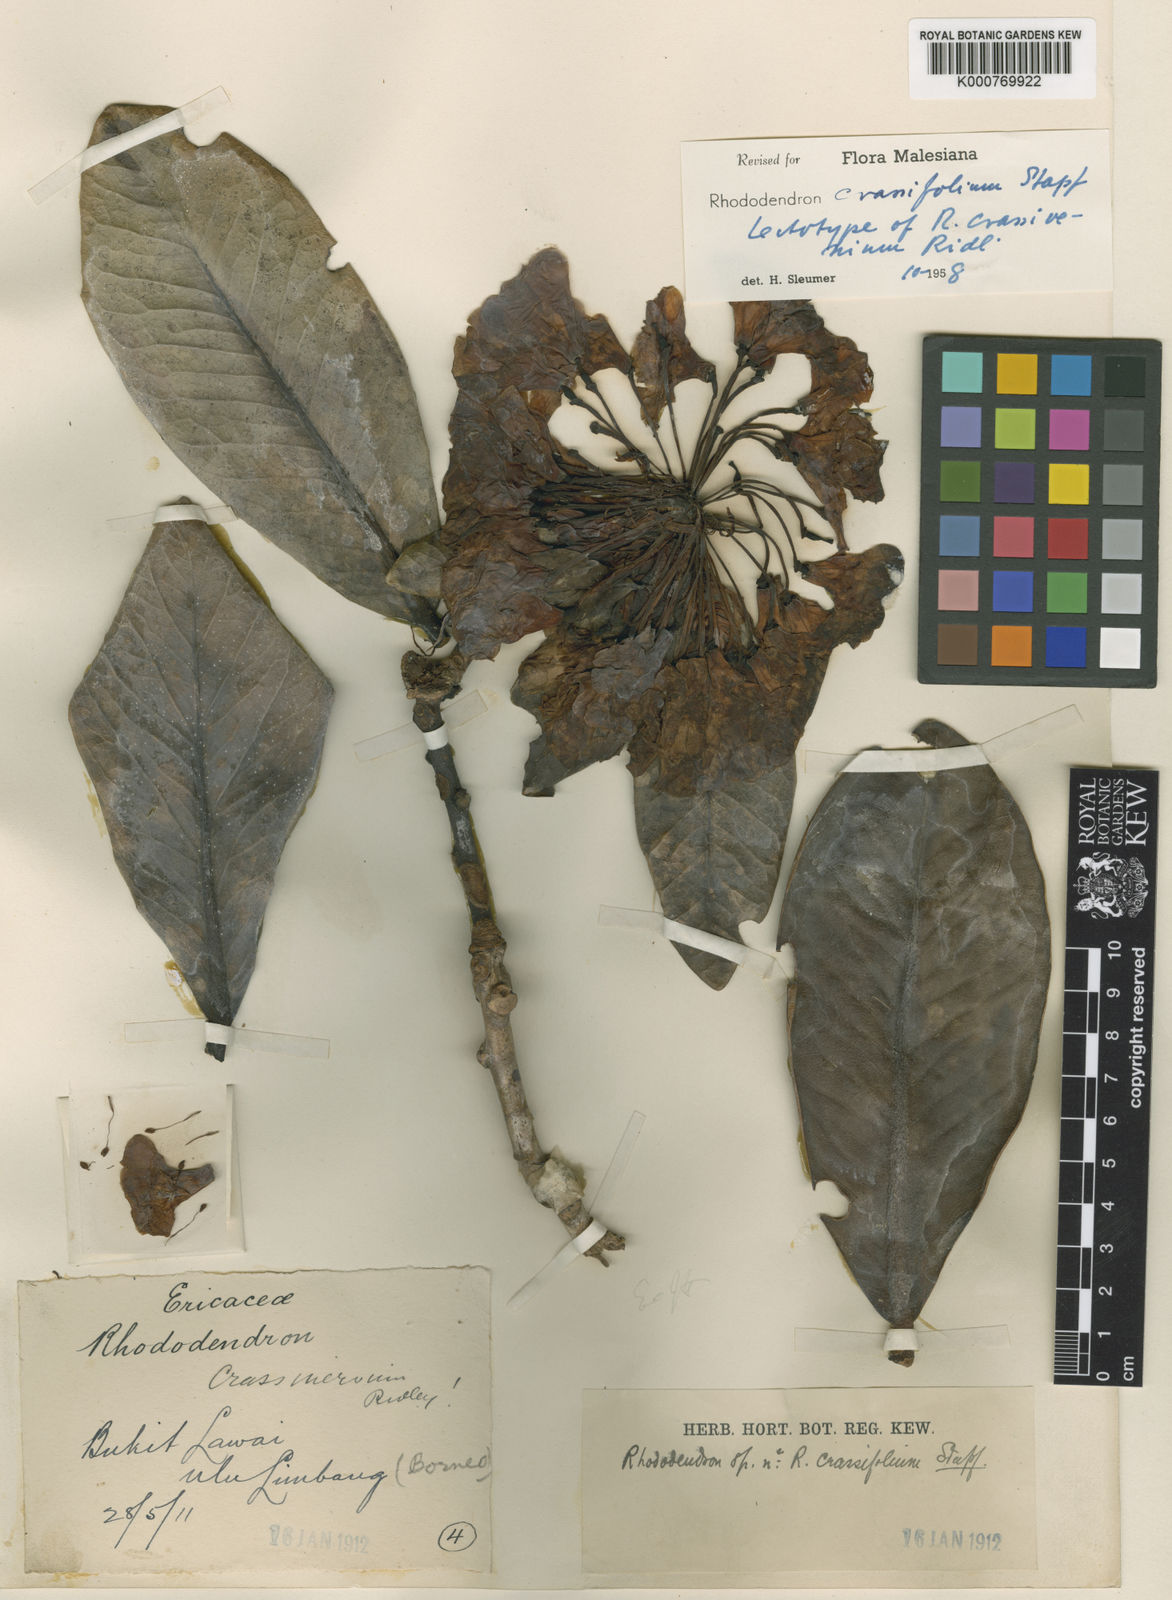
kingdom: Plantae
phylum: Tracheophyta
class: Magnoliopsida
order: Ericales
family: Ericaceae
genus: Rhododendron
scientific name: Rhododendron crassifolium
